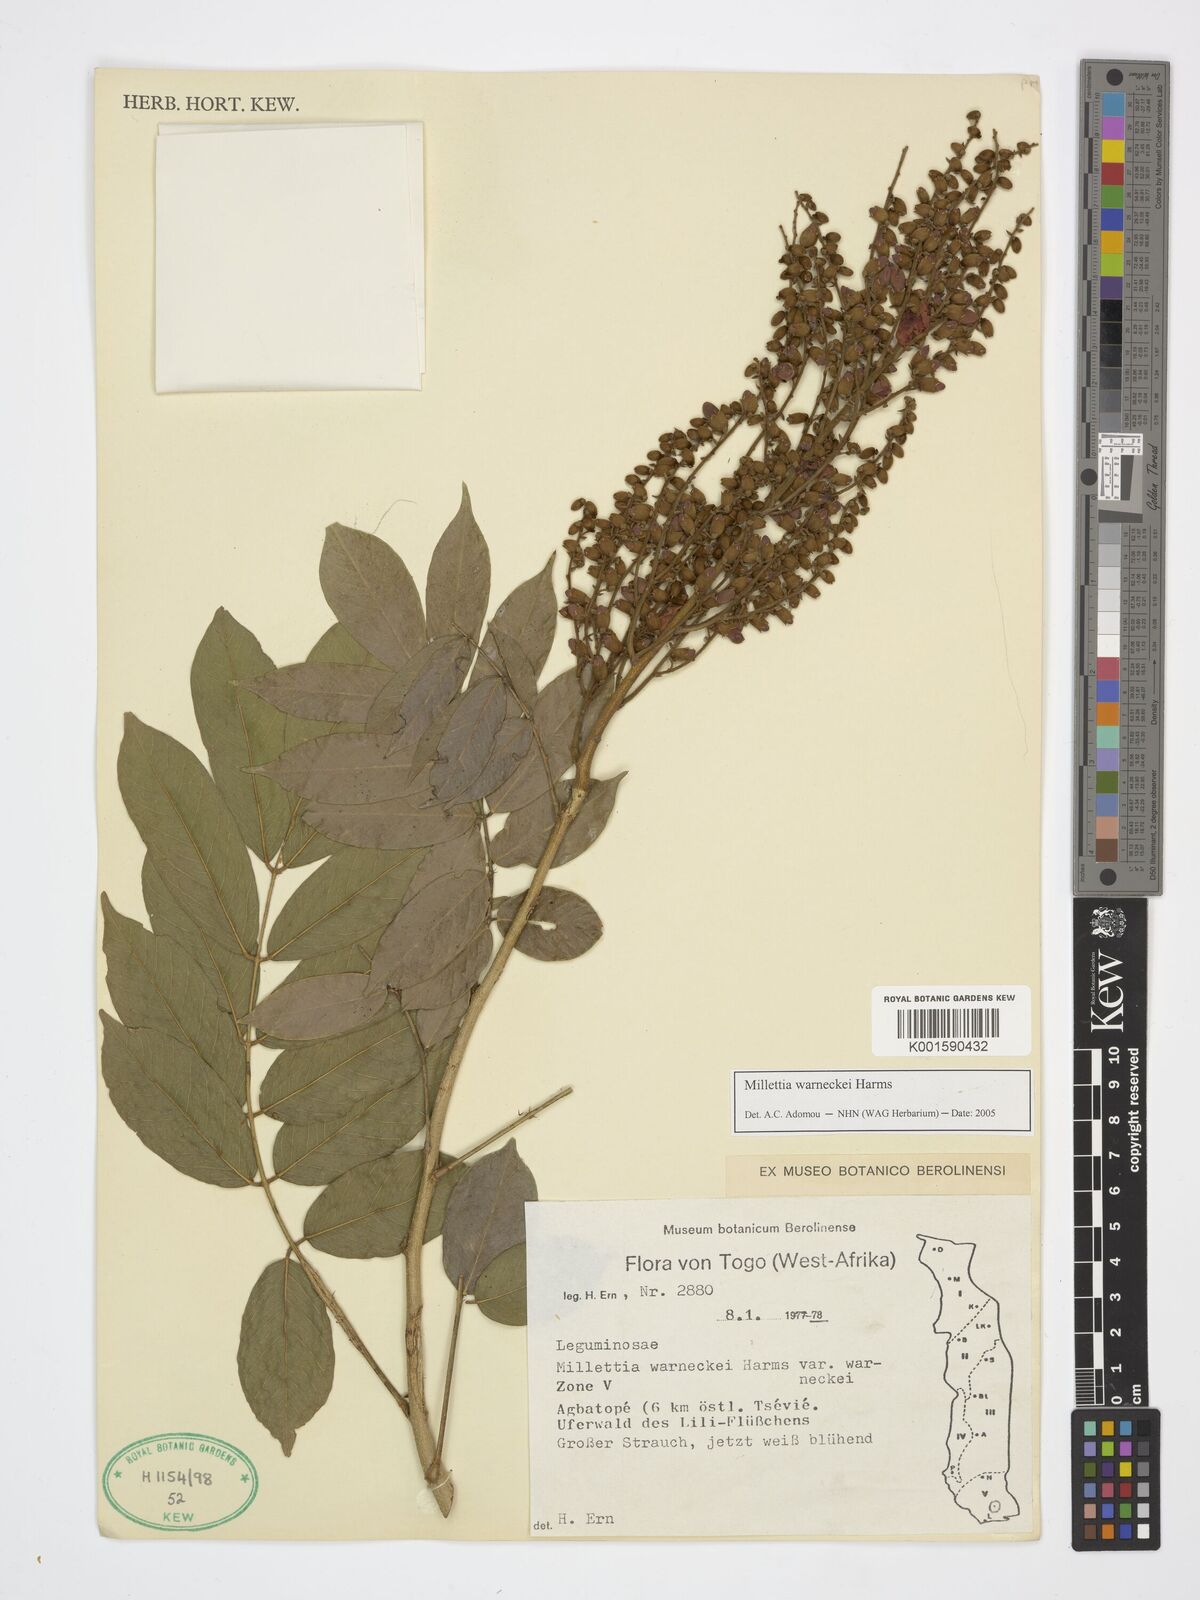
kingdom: Plantae
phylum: Tracheophyta
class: Magnoliopsida
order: Fabales
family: Fabaceae
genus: Millettia
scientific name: Millettia warneckei
